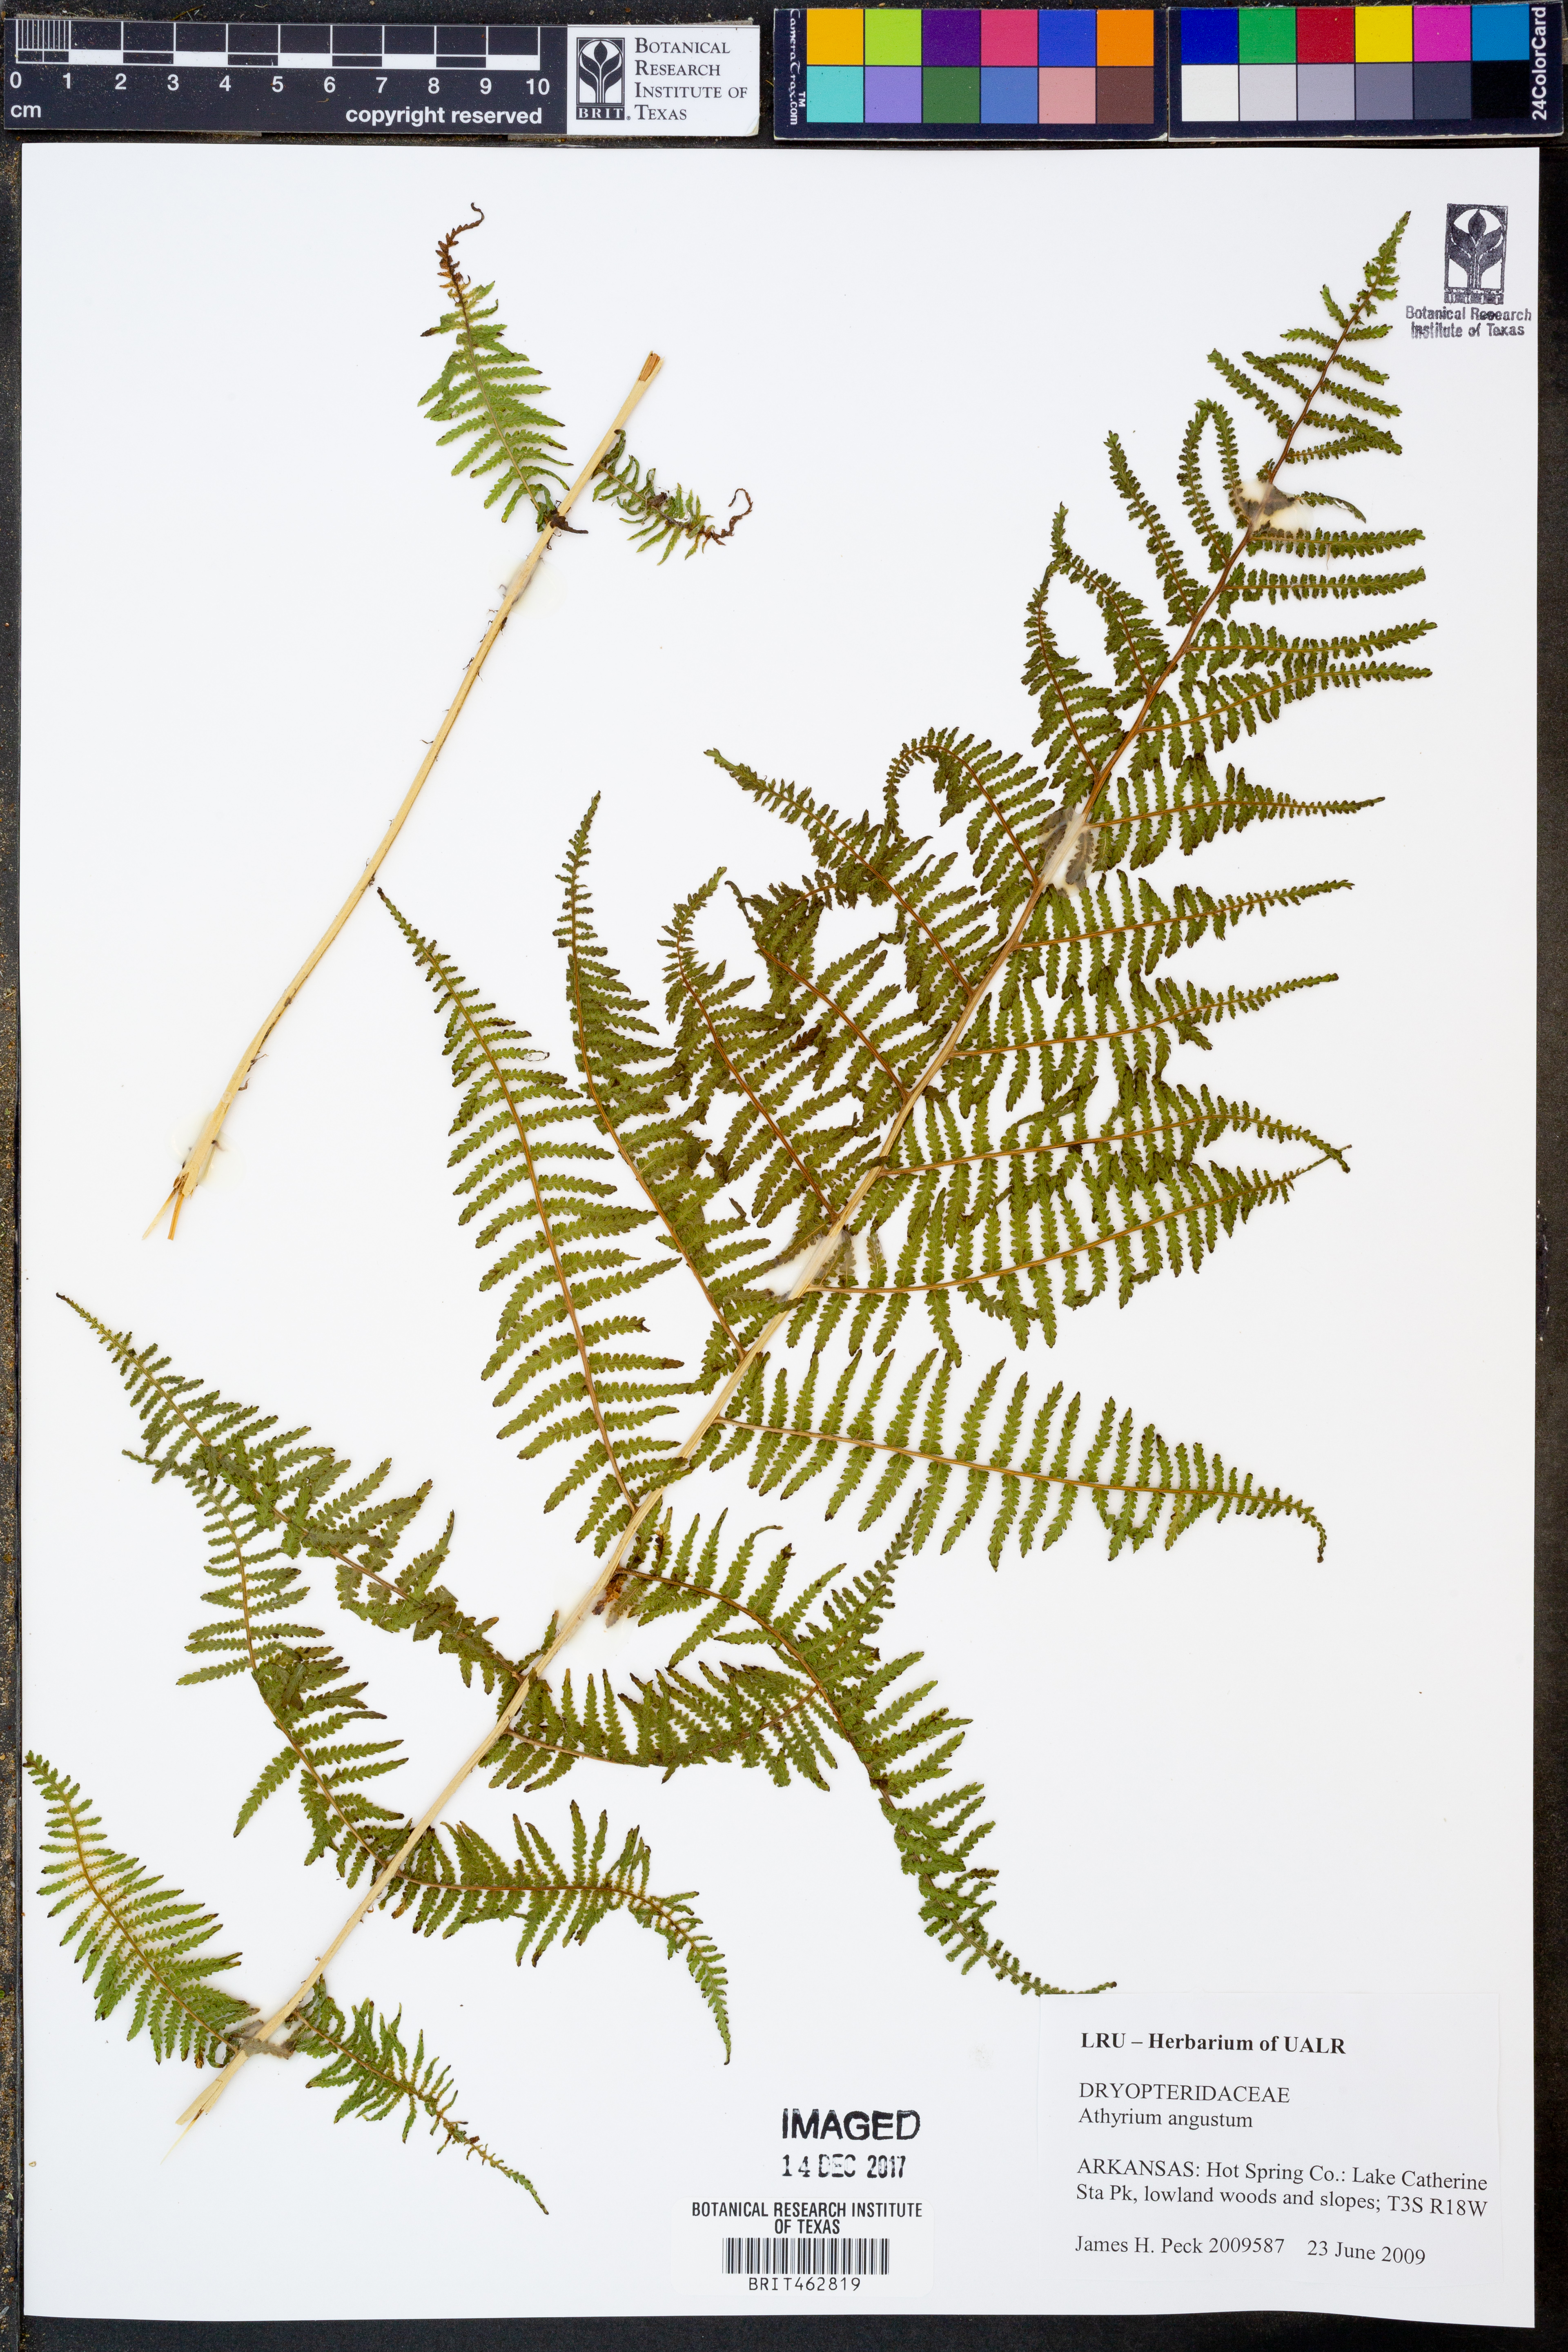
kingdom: Plantae
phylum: Tracheophyta
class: Polypodiopsida
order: Polypodiales
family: Athyriaceae
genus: Athyrium
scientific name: Athyrium angustum
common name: Northern lady fern
